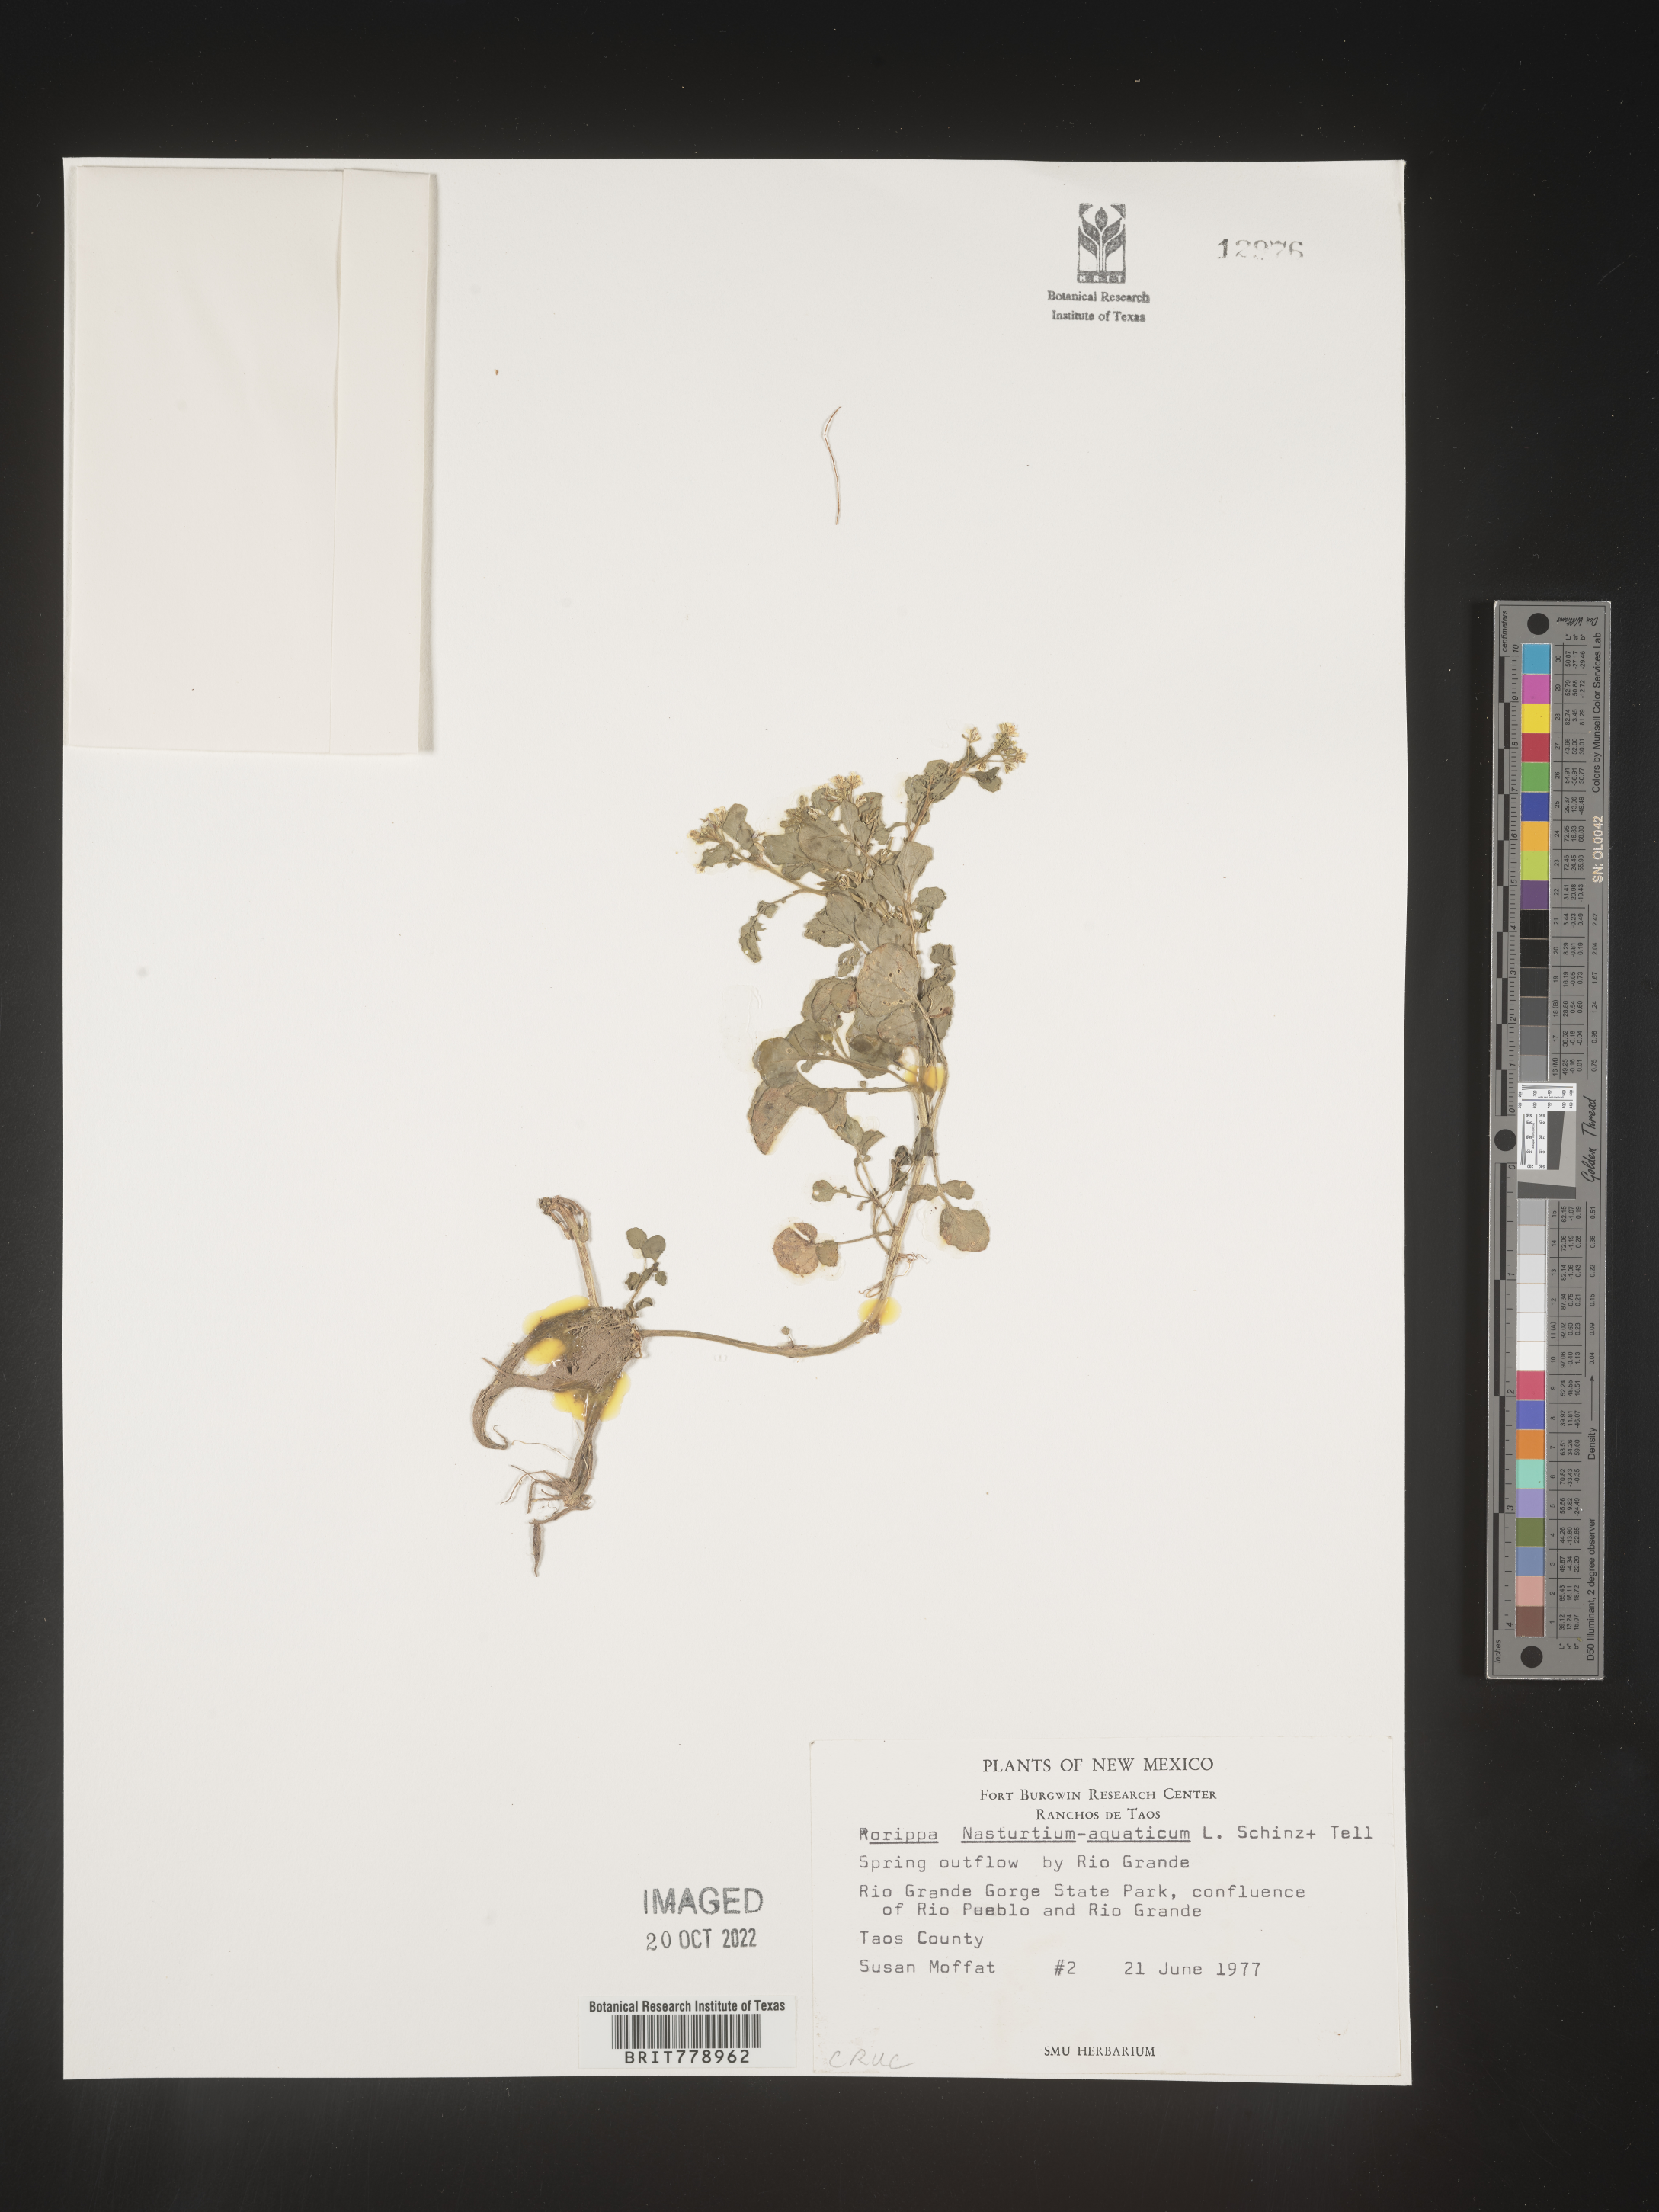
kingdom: Plantae
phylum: Tracheophyta
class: Magnoliopsida
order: Brassicales
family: Brassicaceae
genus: Nasturtium
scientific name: Nasturtium officinale
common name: Watercress
